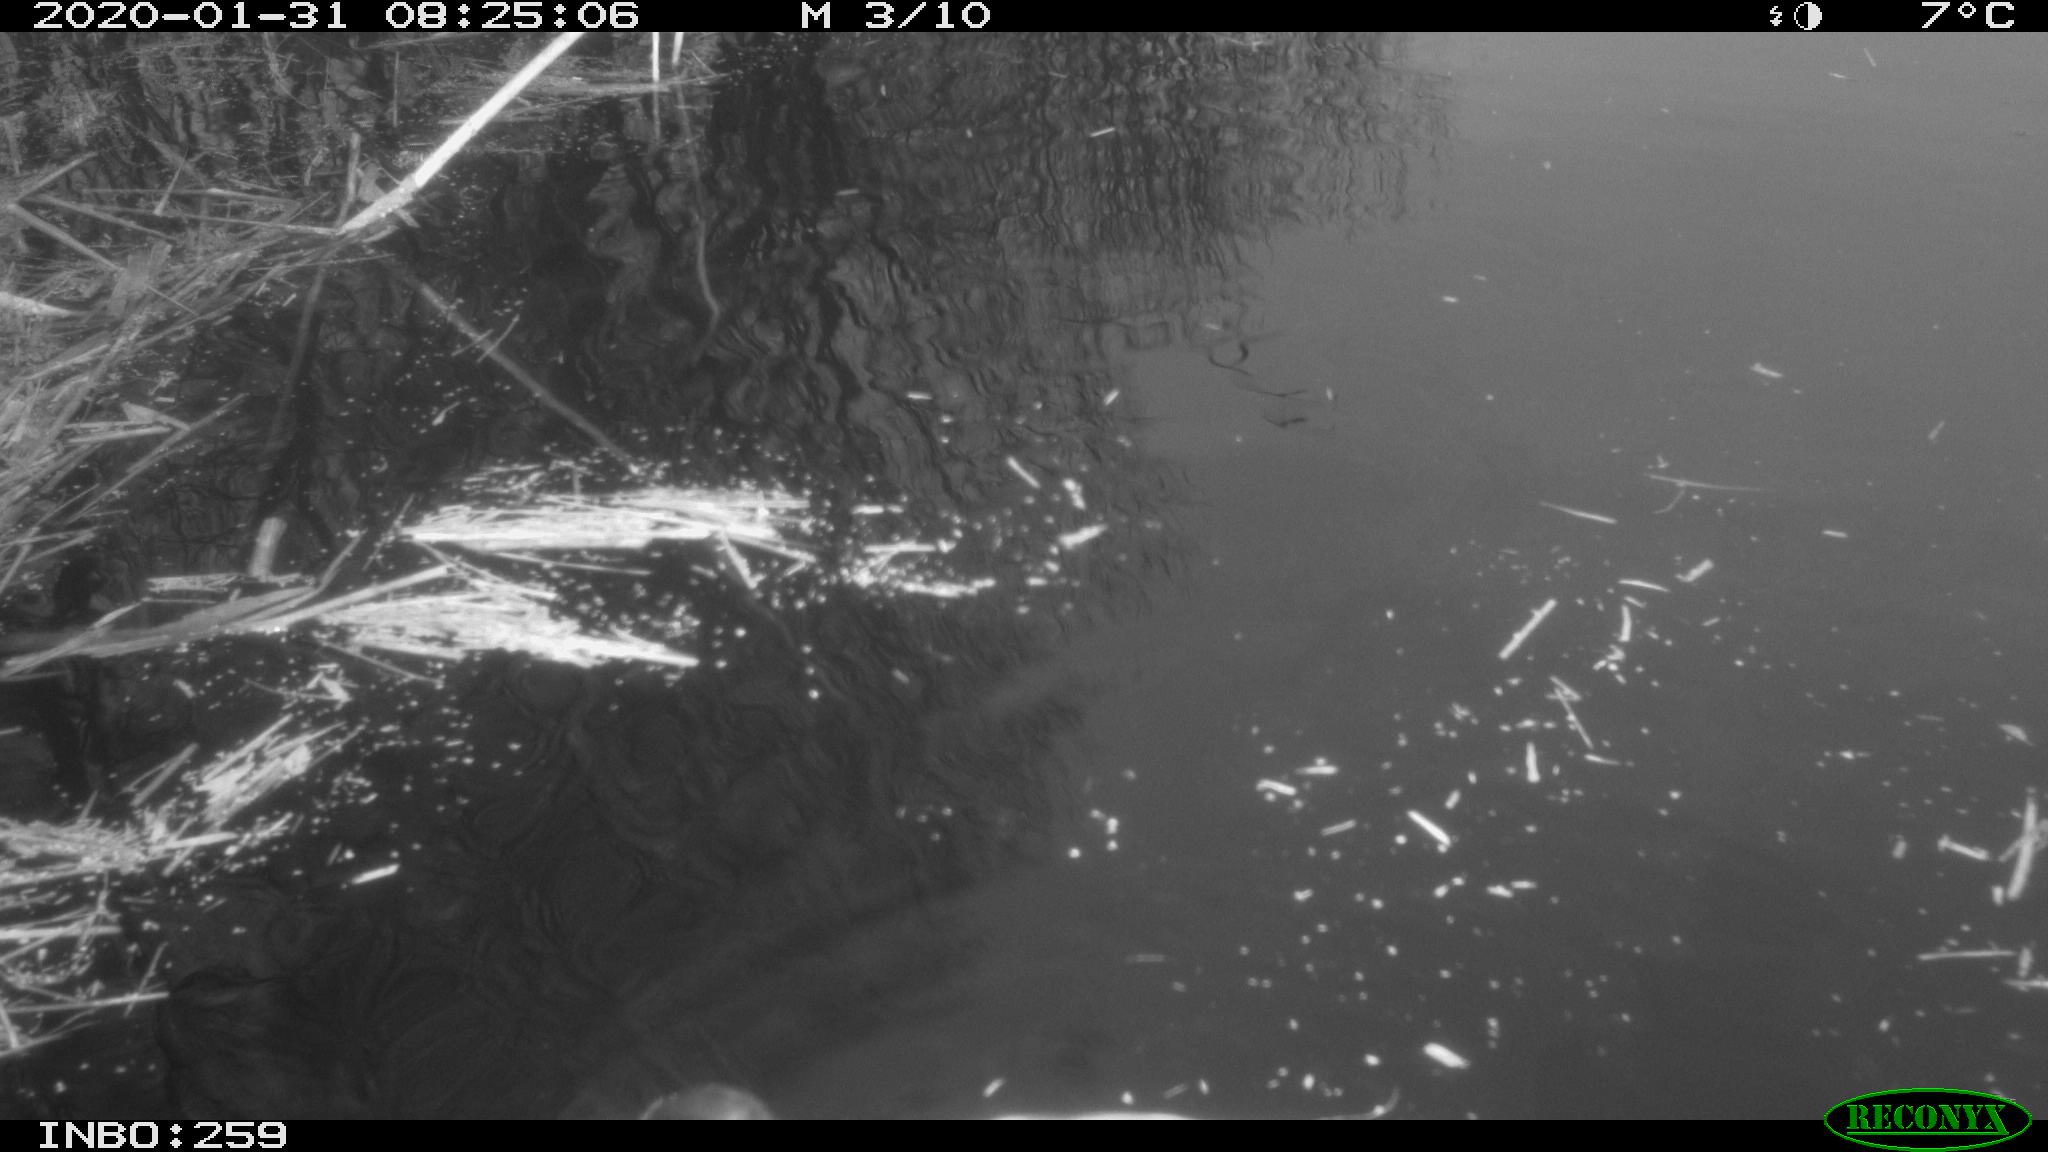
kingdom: Animalia
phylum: Chordata
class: Aves
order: Gruiformes
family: Rallidae
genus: Gallinula
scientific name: Gallinula chloropus
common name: Common moorhen
